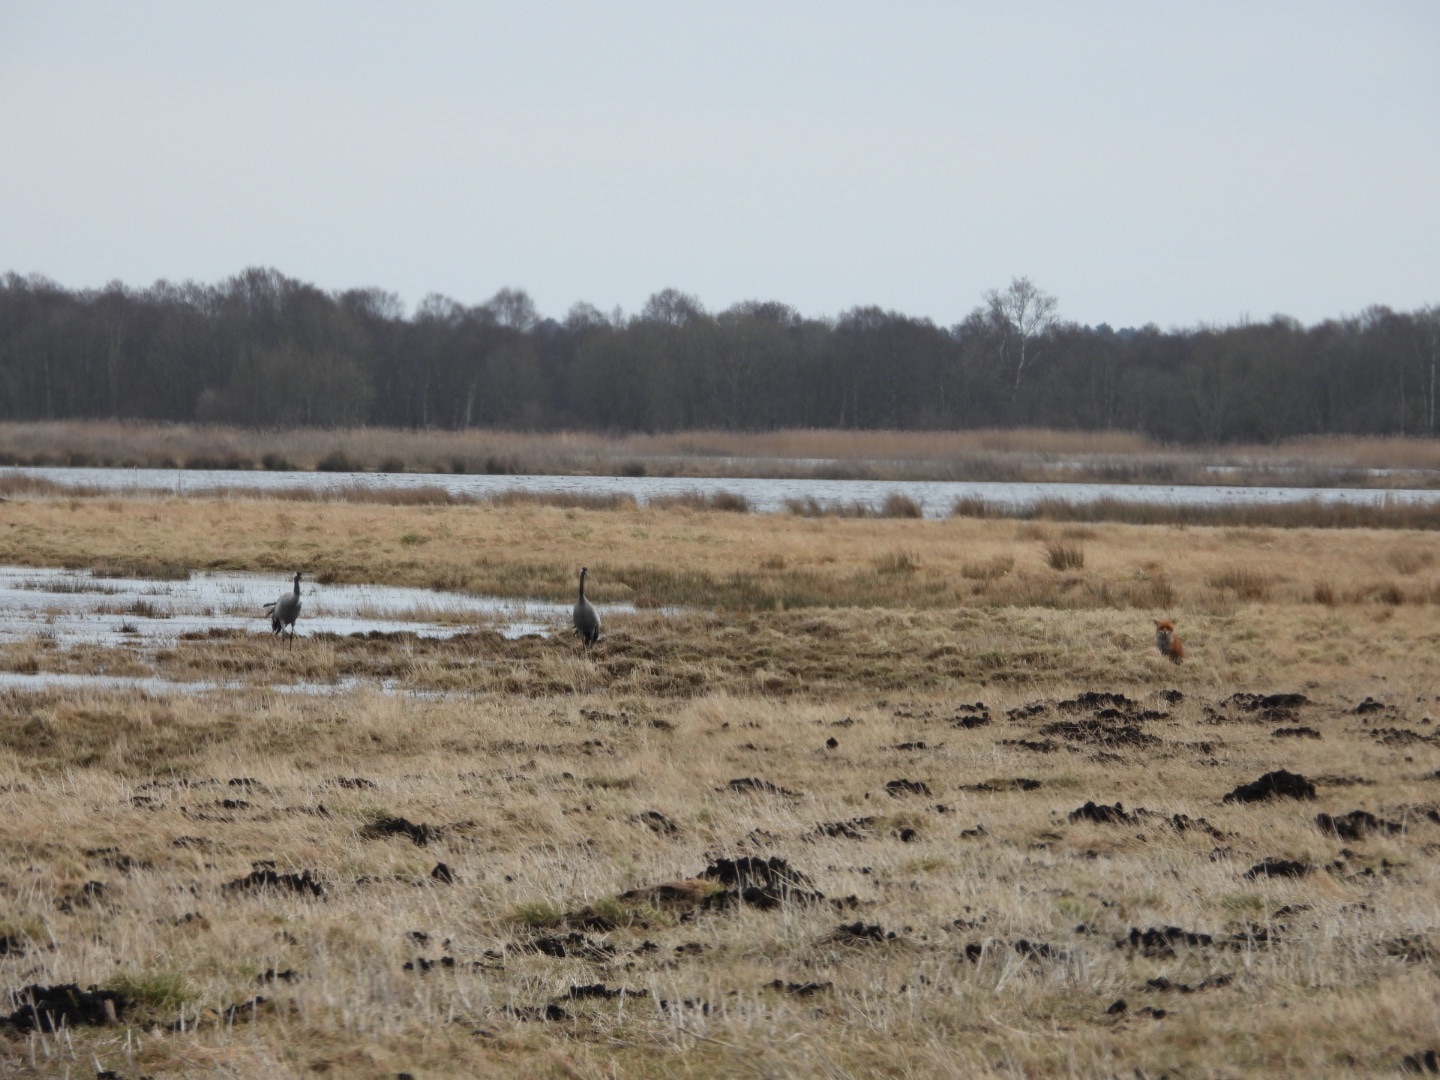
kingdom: Animalia
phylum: Chordata
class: Aves
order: Gruiformes
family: Gruidae
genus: Grus
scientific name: Grus grus
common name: Trane
